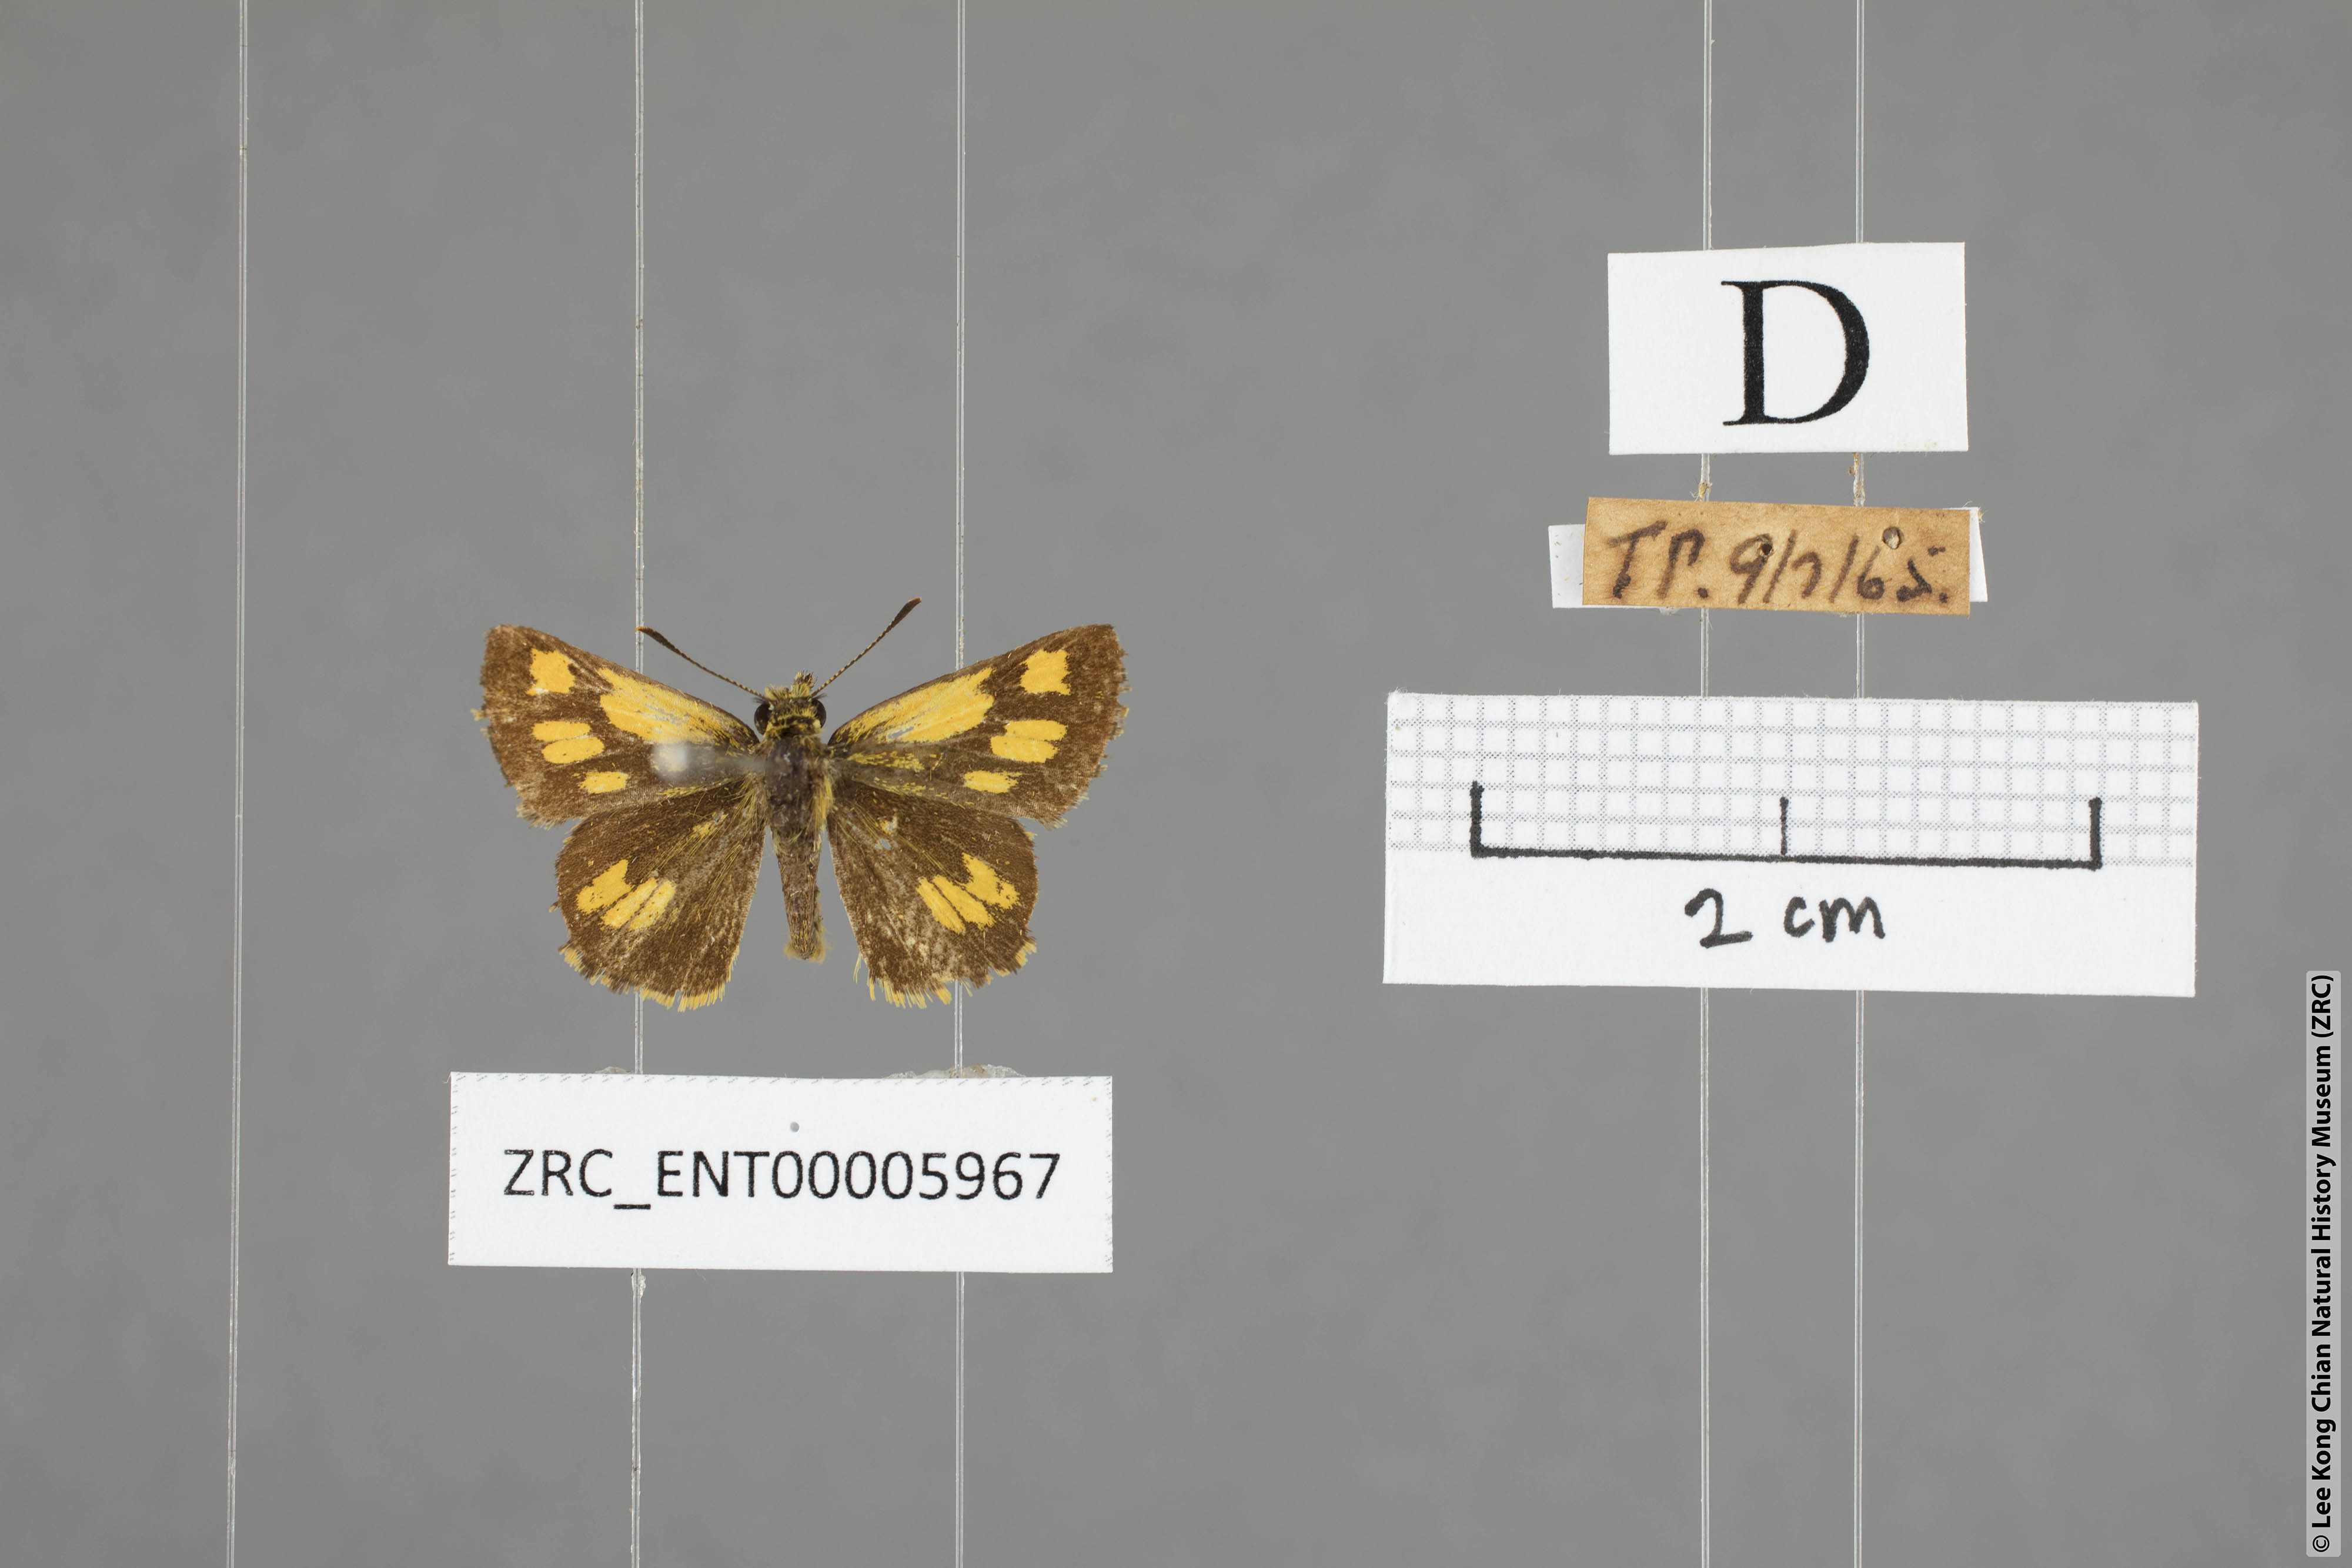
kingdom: Animalia
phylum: Arthropoda
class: Insecta
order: Lepidoptera
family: Hesperiidae
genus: Ampittia
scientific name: Ampittia dioscorides
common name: Common bush hopper
